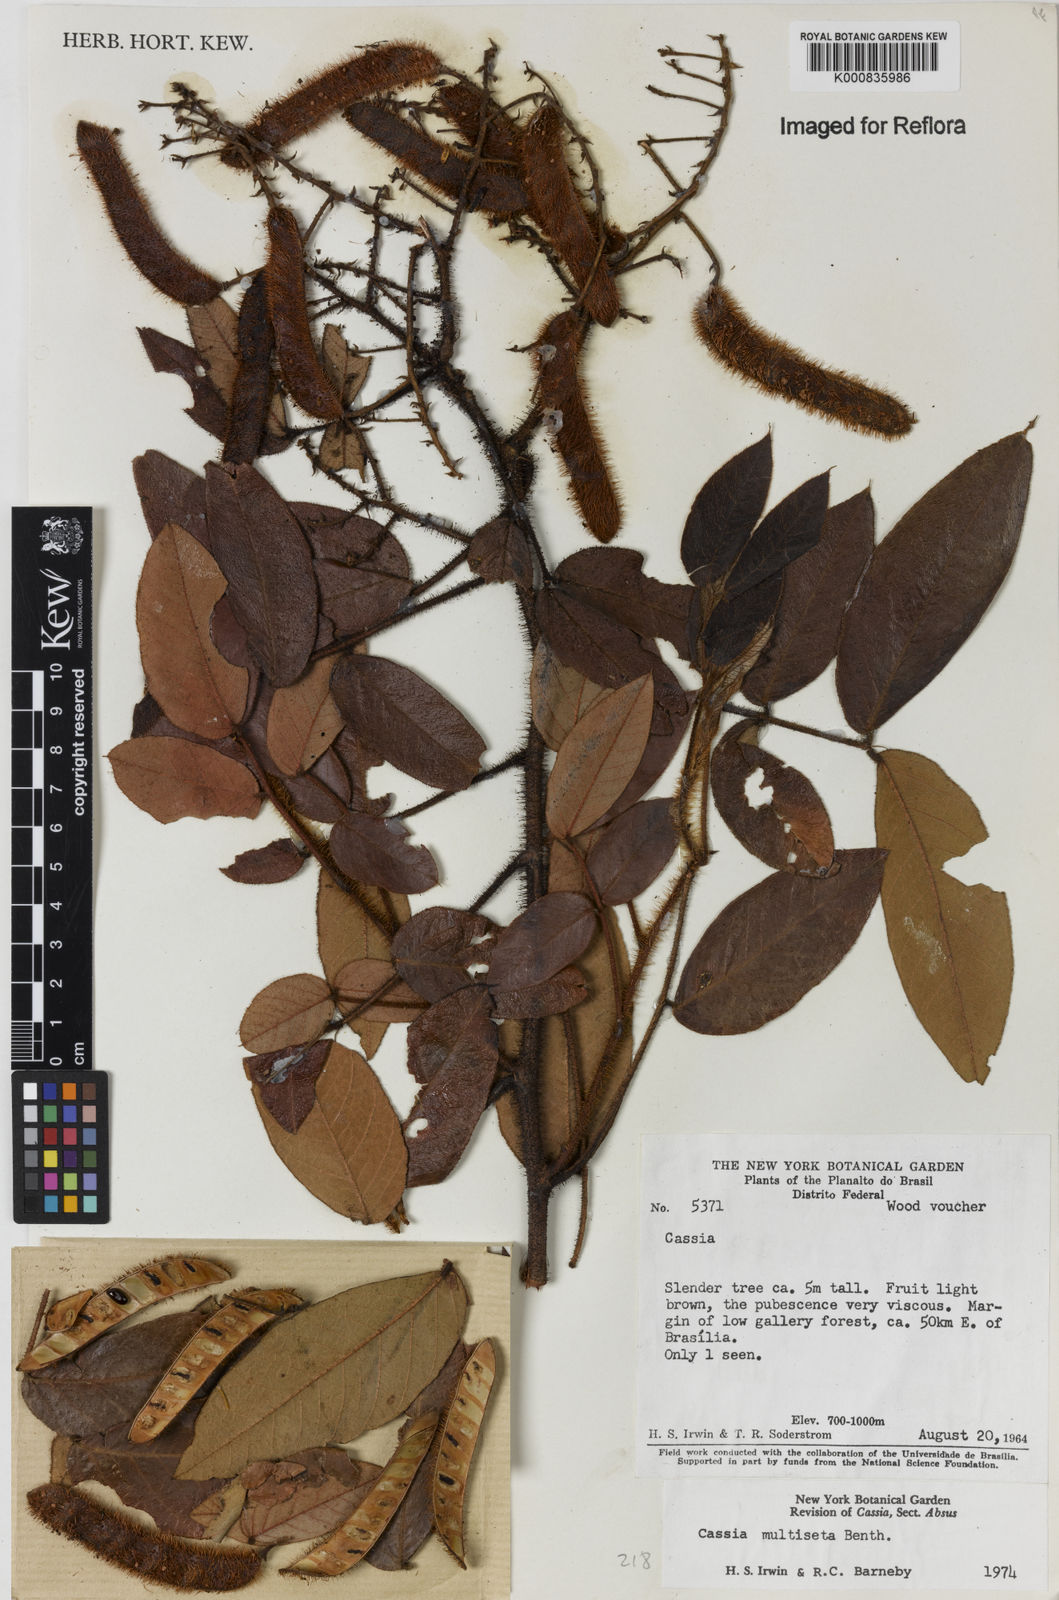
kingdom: Plantae
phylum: Tracheophyta
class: Magnoliopsida
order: Fabales
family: Fabaceae
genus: Chamaecrista
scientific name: Chamaecrista multiseta
